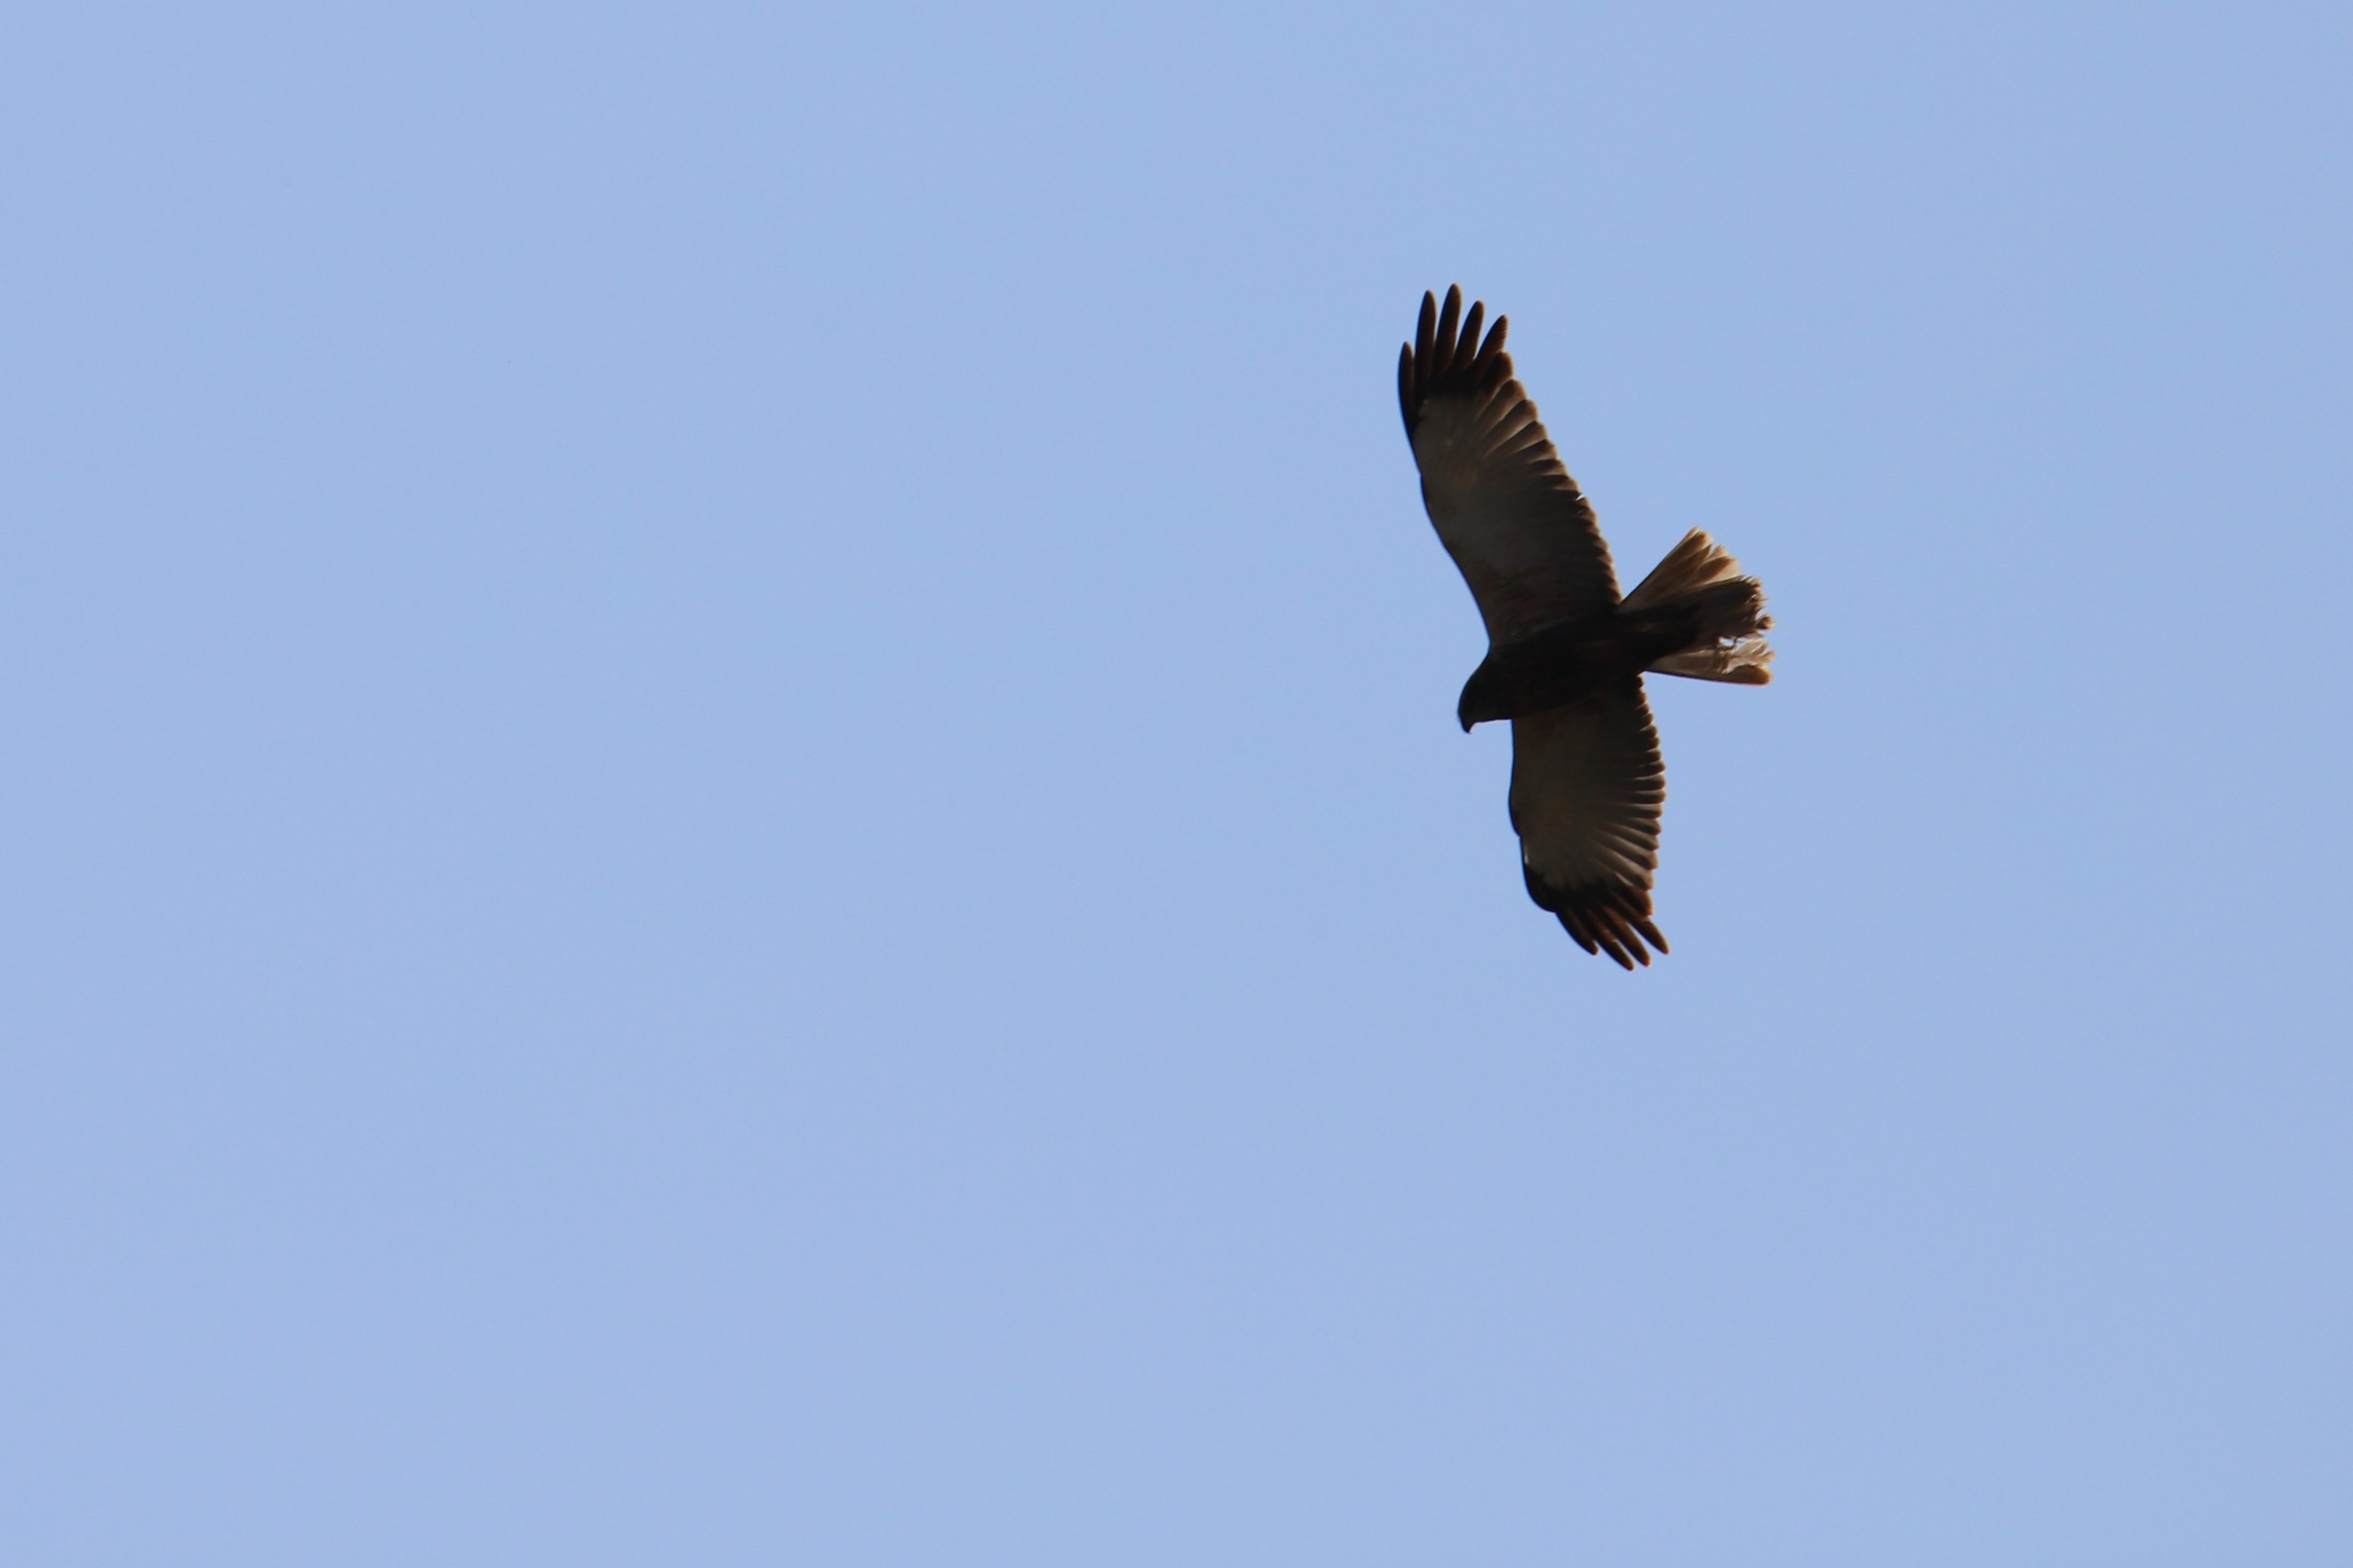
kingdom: Animalia
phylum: Chordata
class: Aves
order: Accipitriformes
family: Accipitridae
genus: Circus
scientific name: Circus aeruginosus
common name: Rørhøg
